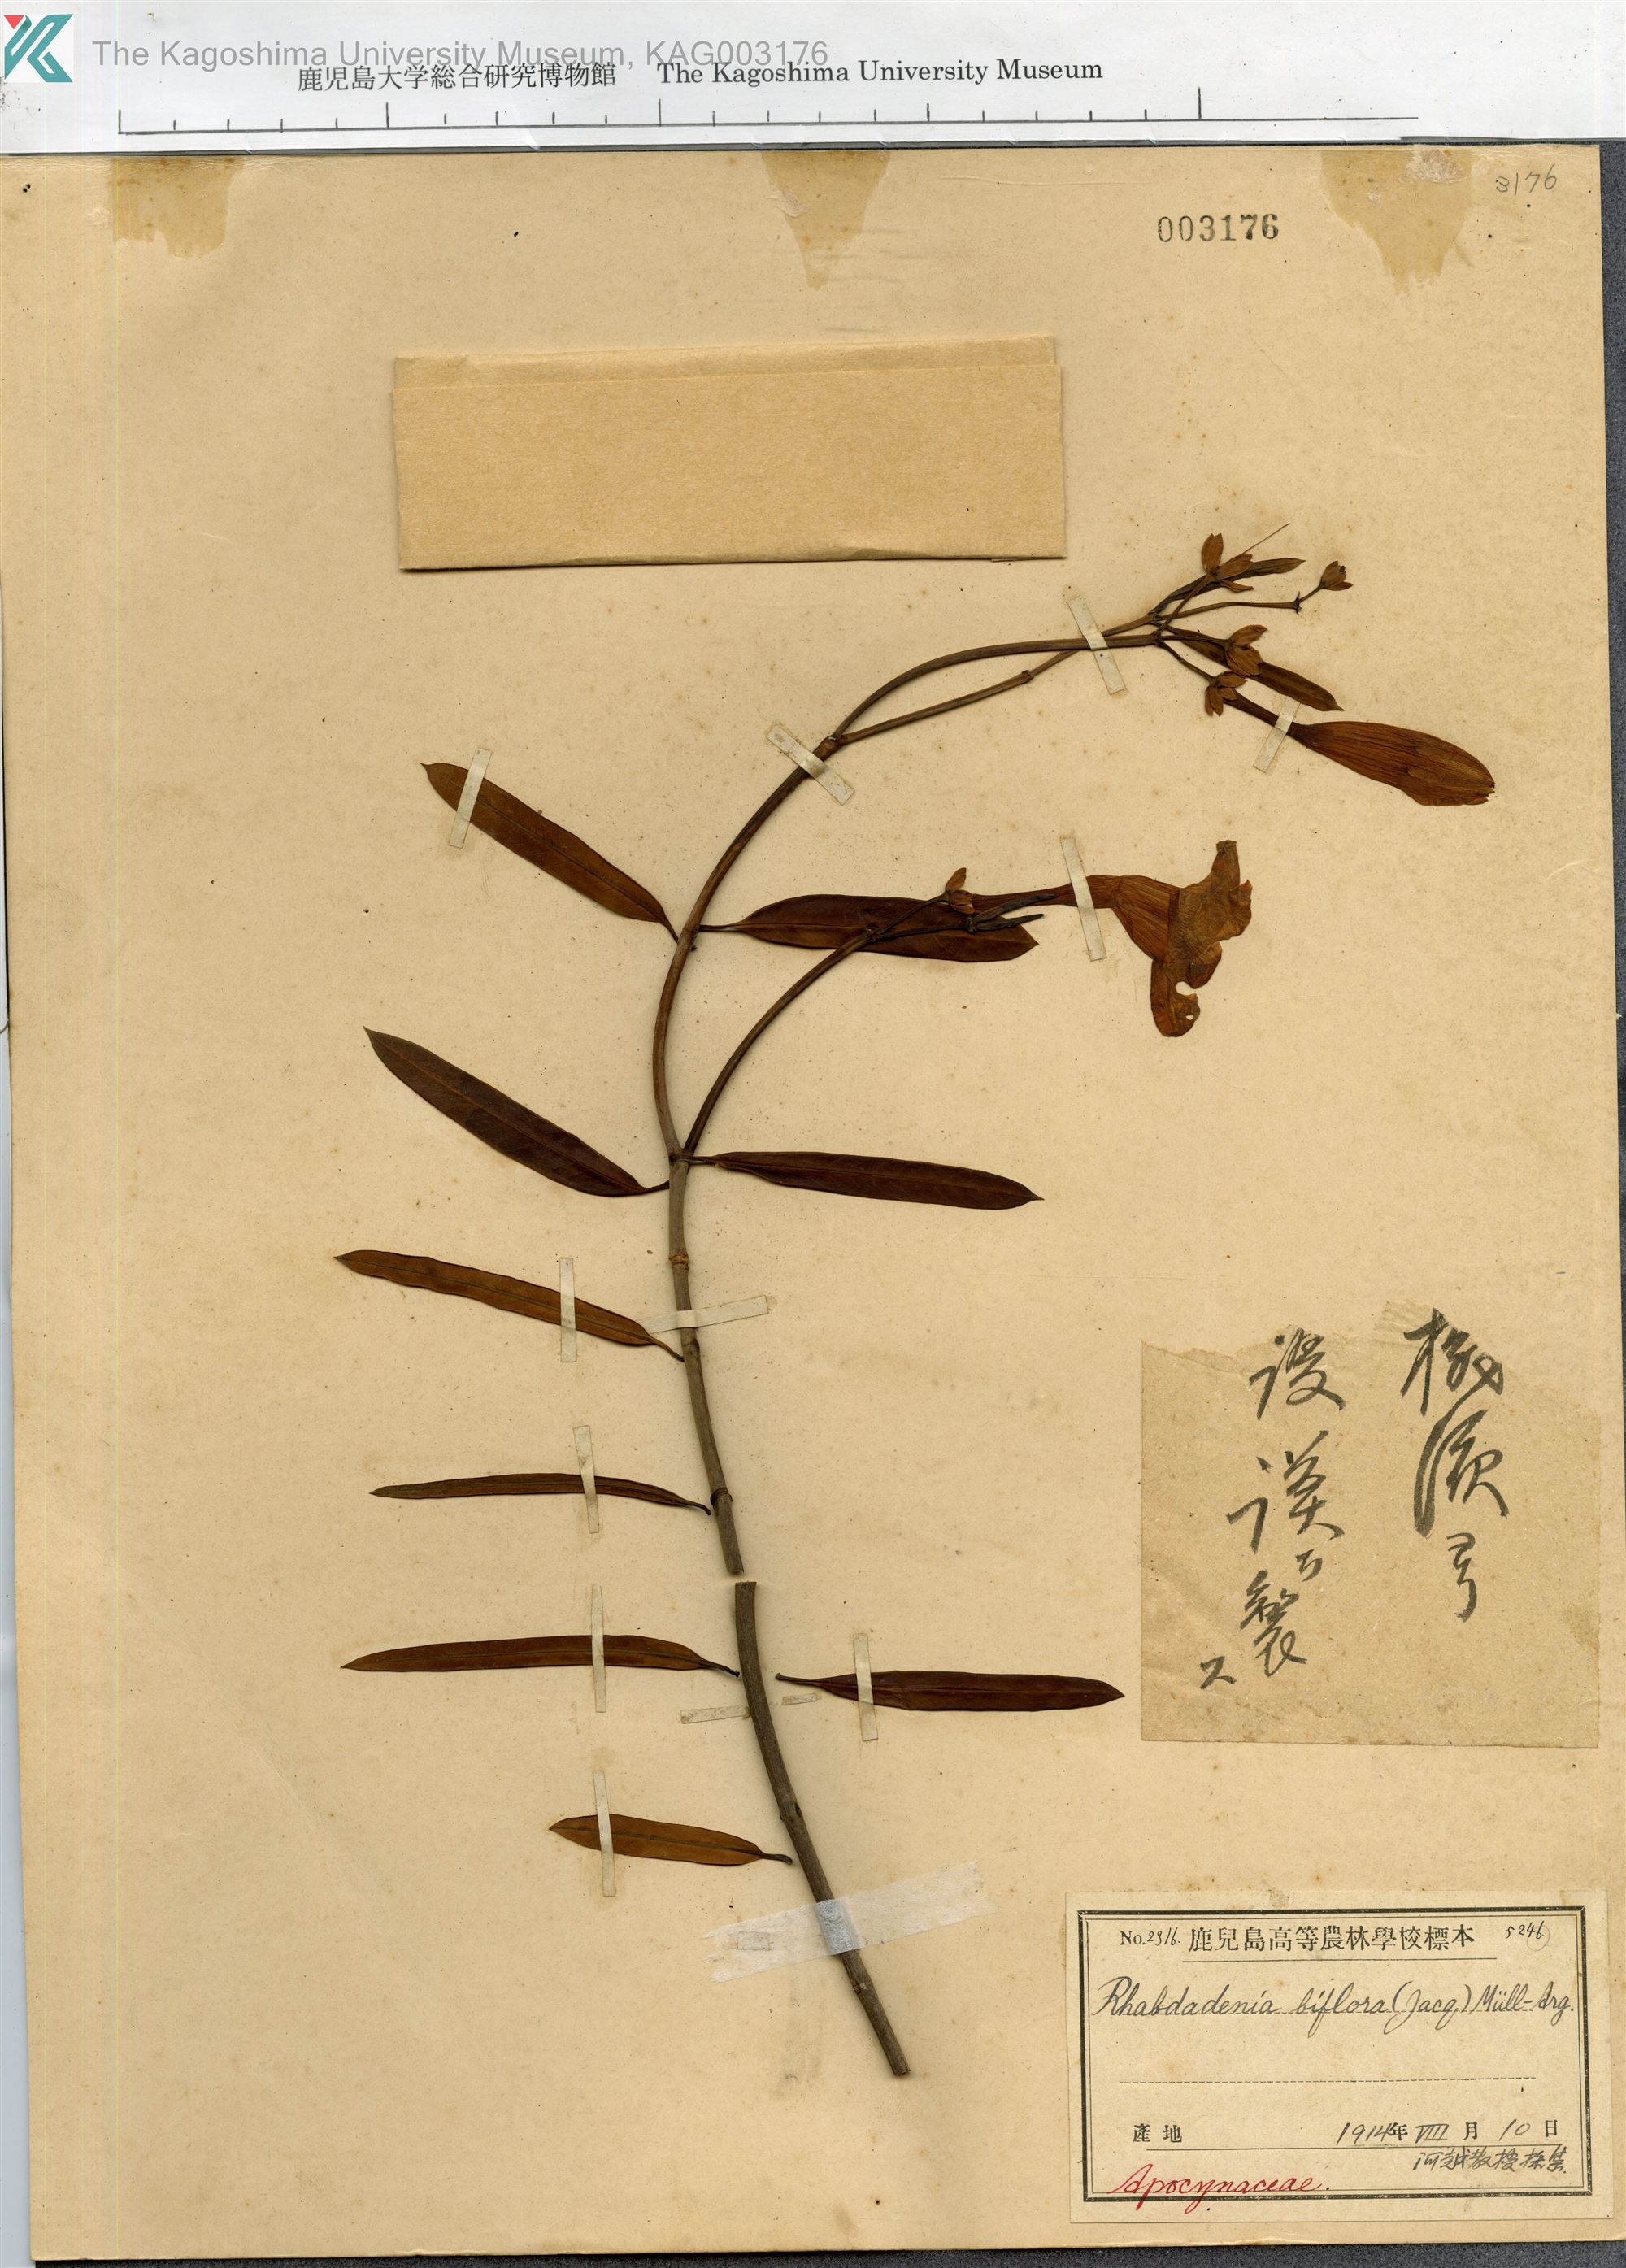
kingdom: Plantae
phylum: Tracheophyta
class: Magnoliopsida
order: Gentianales
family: Apocynaceae
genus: Rhabdadenia
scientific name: Rhabdadenia biflora
